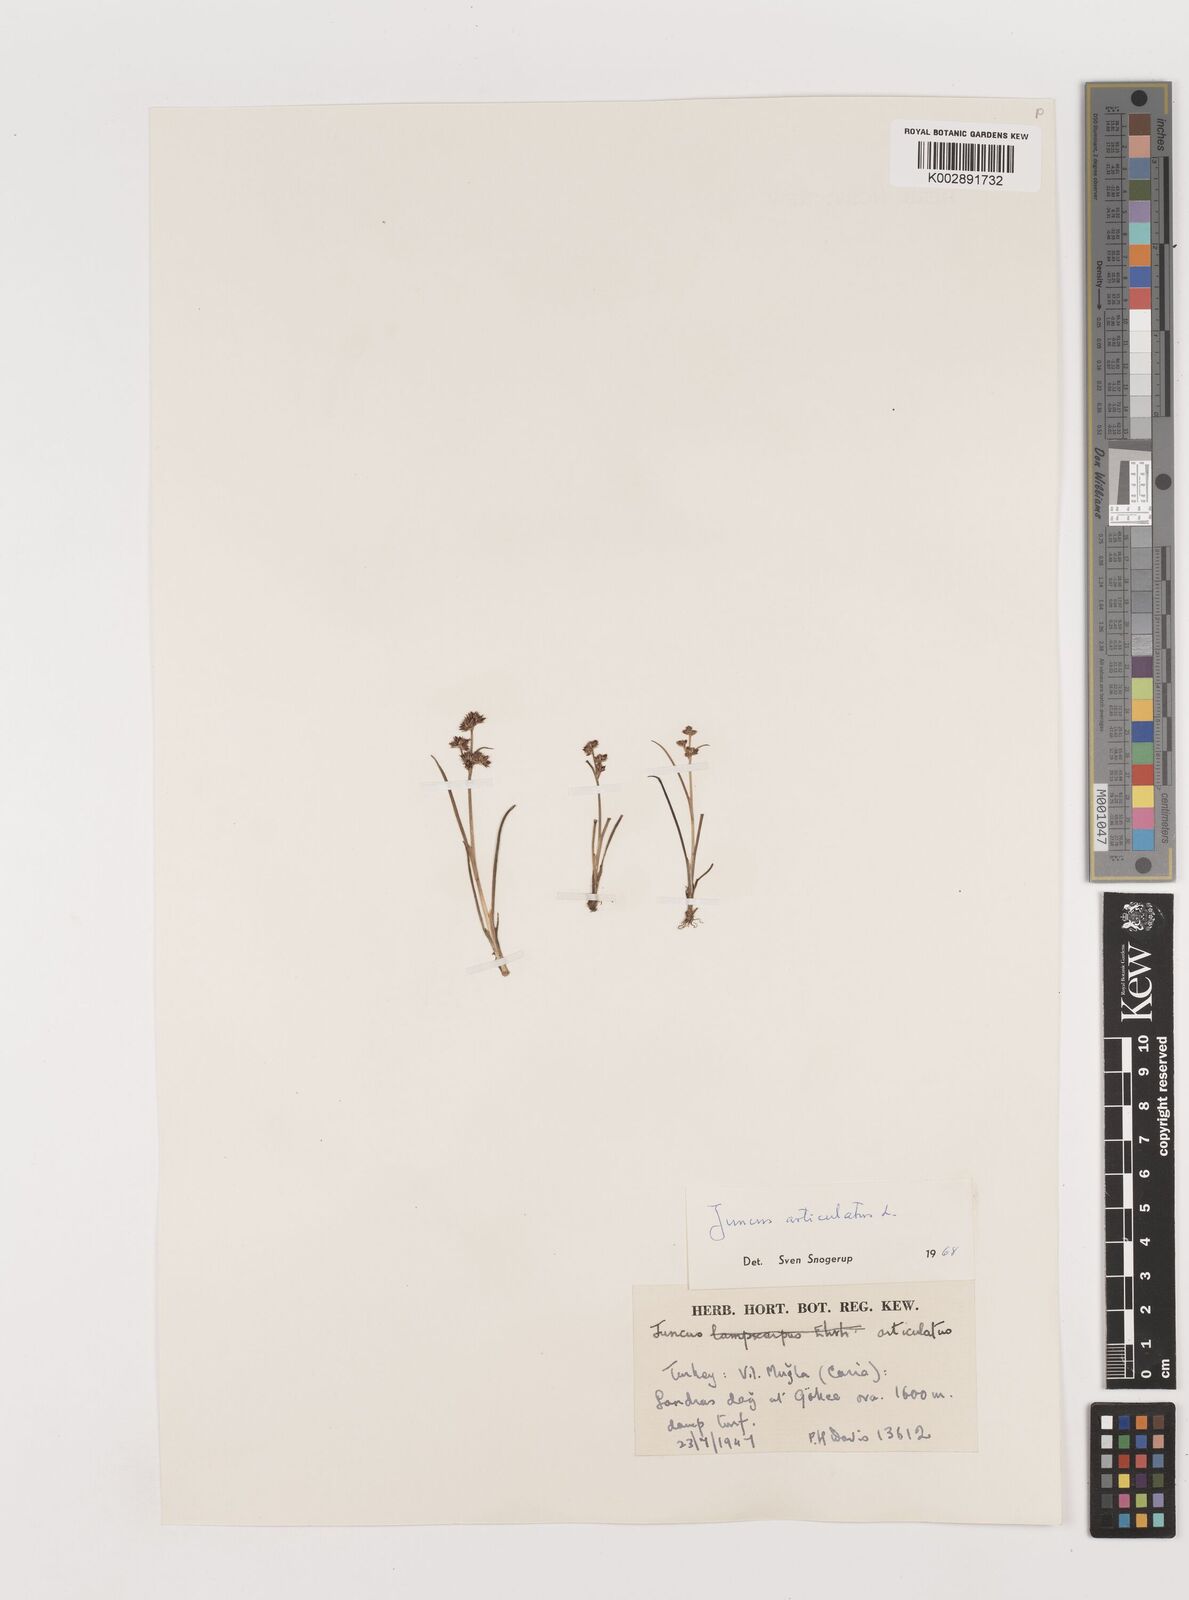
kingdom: Plantae
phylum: Tracheophyta
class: Liliopsida
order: Poales
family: Juncaceae
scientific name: Juncaceae
